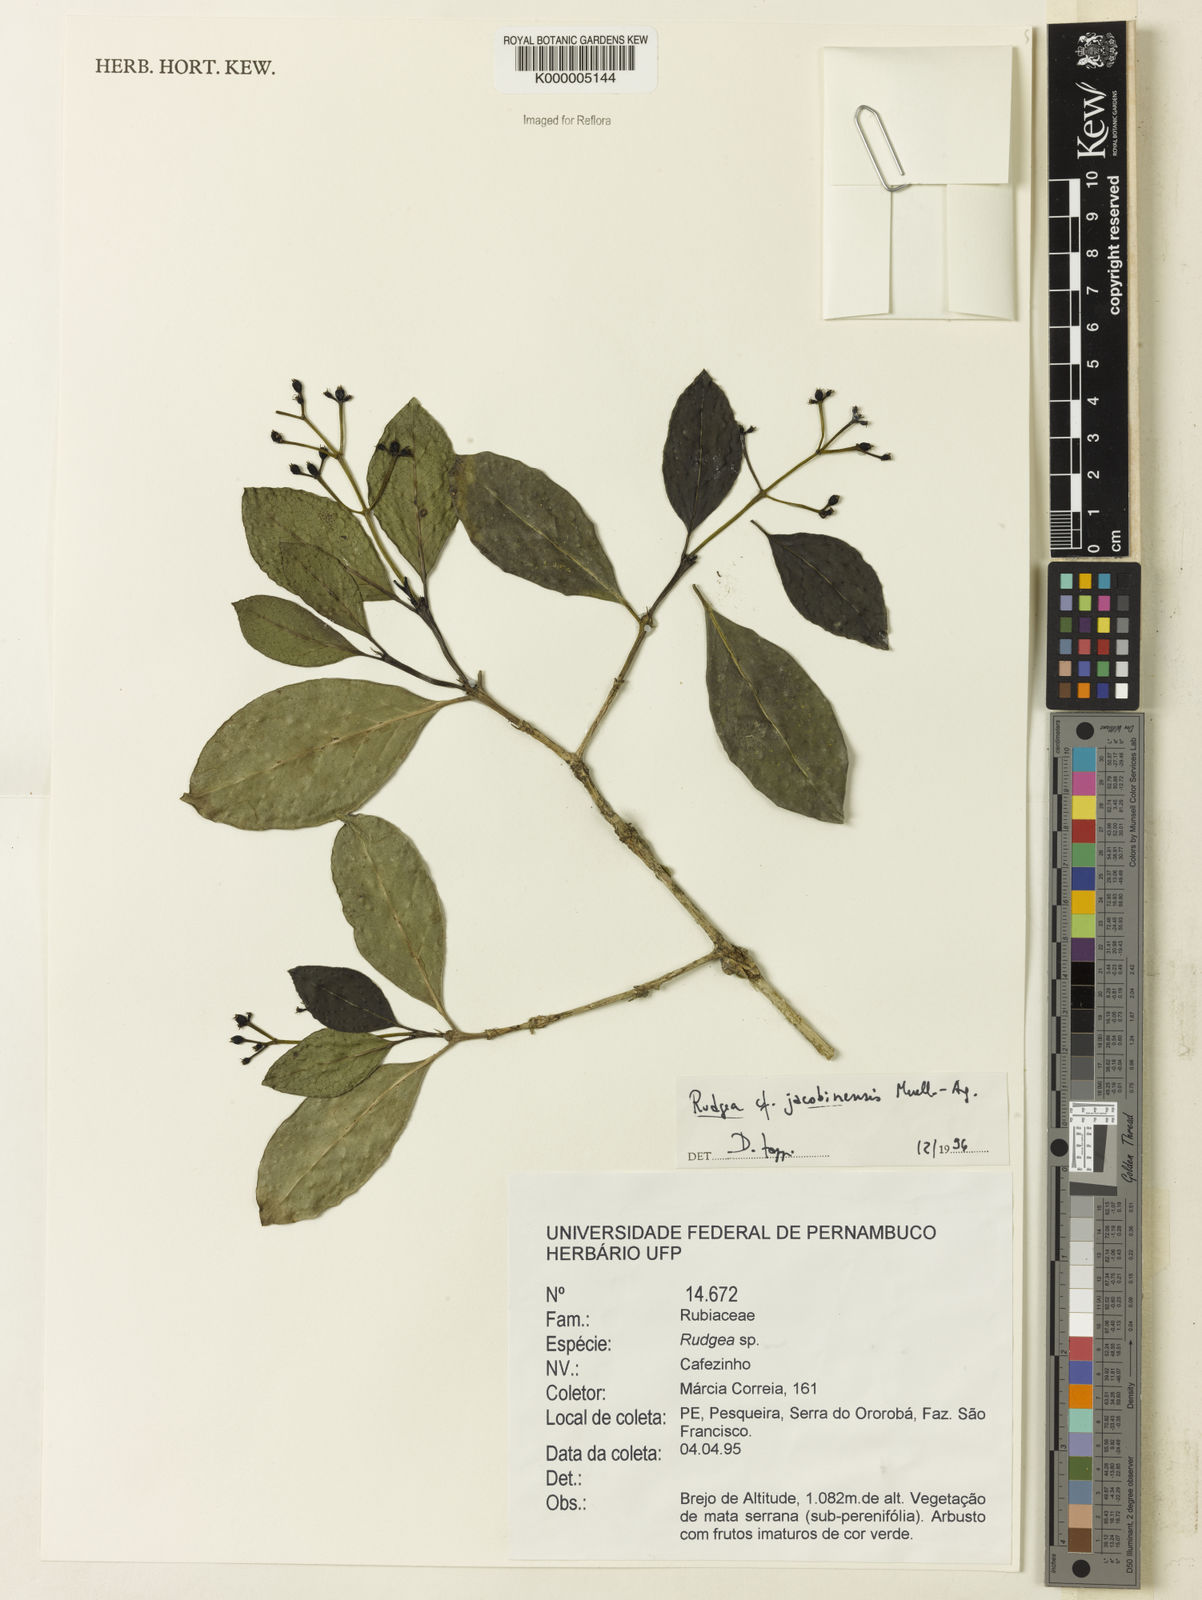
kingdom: Plantae
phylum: Tracheophyta
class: Magnoliopsida
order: Gentianales
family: Rubiaceae
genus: Rudgea
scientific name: Rudgea erioloba
